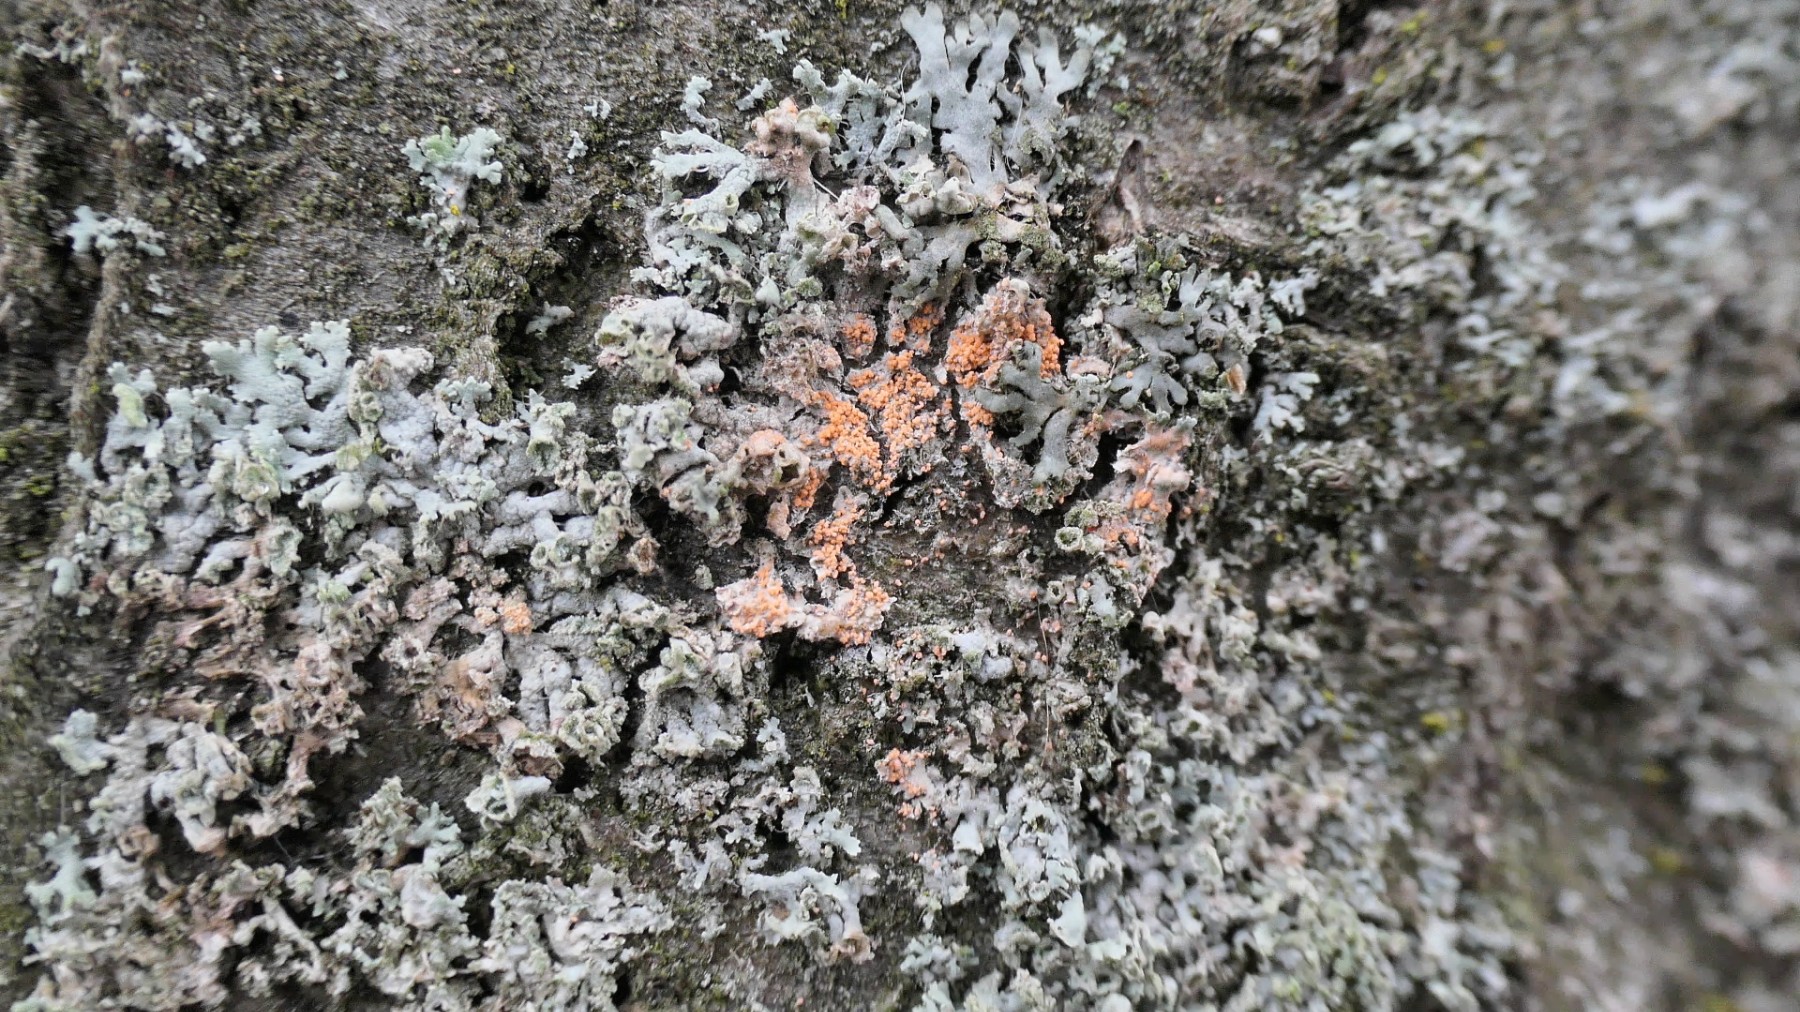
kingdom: Fungi
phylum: Basidiomycota
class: Agaricomycetes
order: Corticiales
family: Corticiaceae
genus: Erythricium
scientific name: Erythricium aurantiacum
